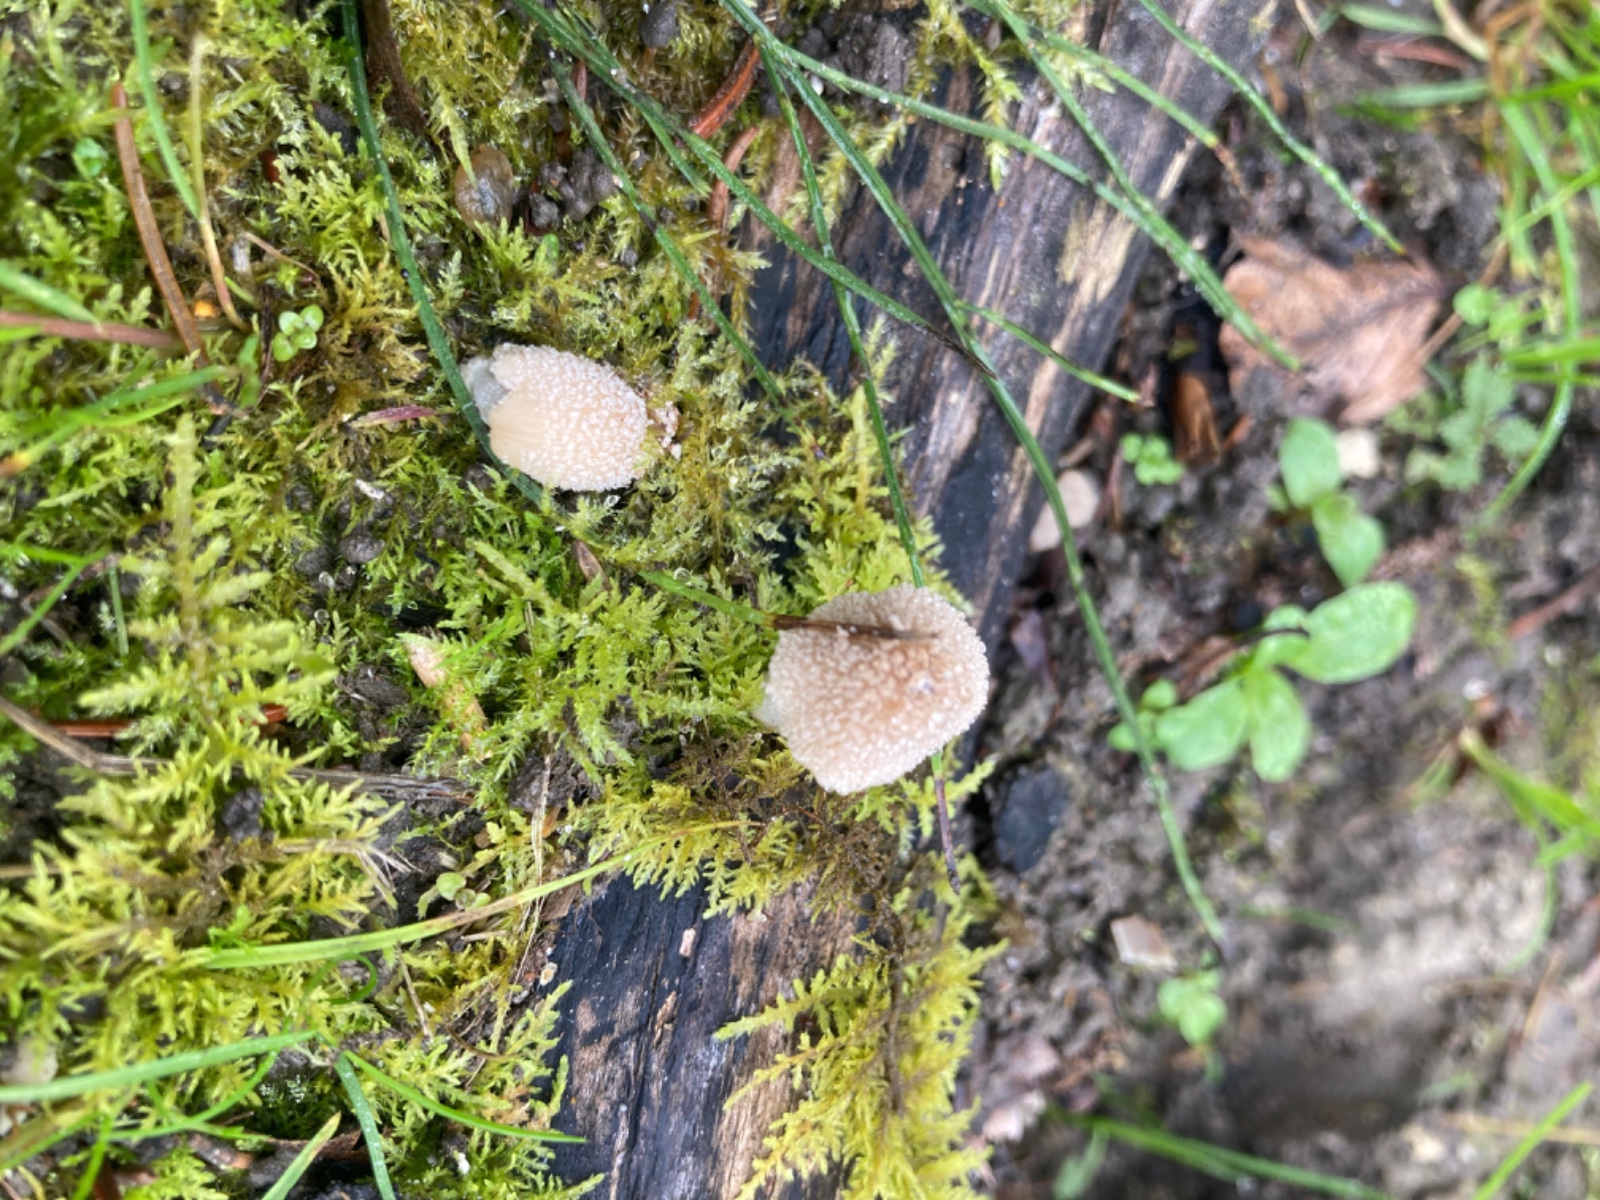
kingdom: Fungi
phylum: Basidiomycota
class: Agaricomycetes
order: Agaricales
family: Psathyrellaceae
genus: Coprinellus
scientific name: Coprinellus xanthothrix
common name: gultrådet blækhat
